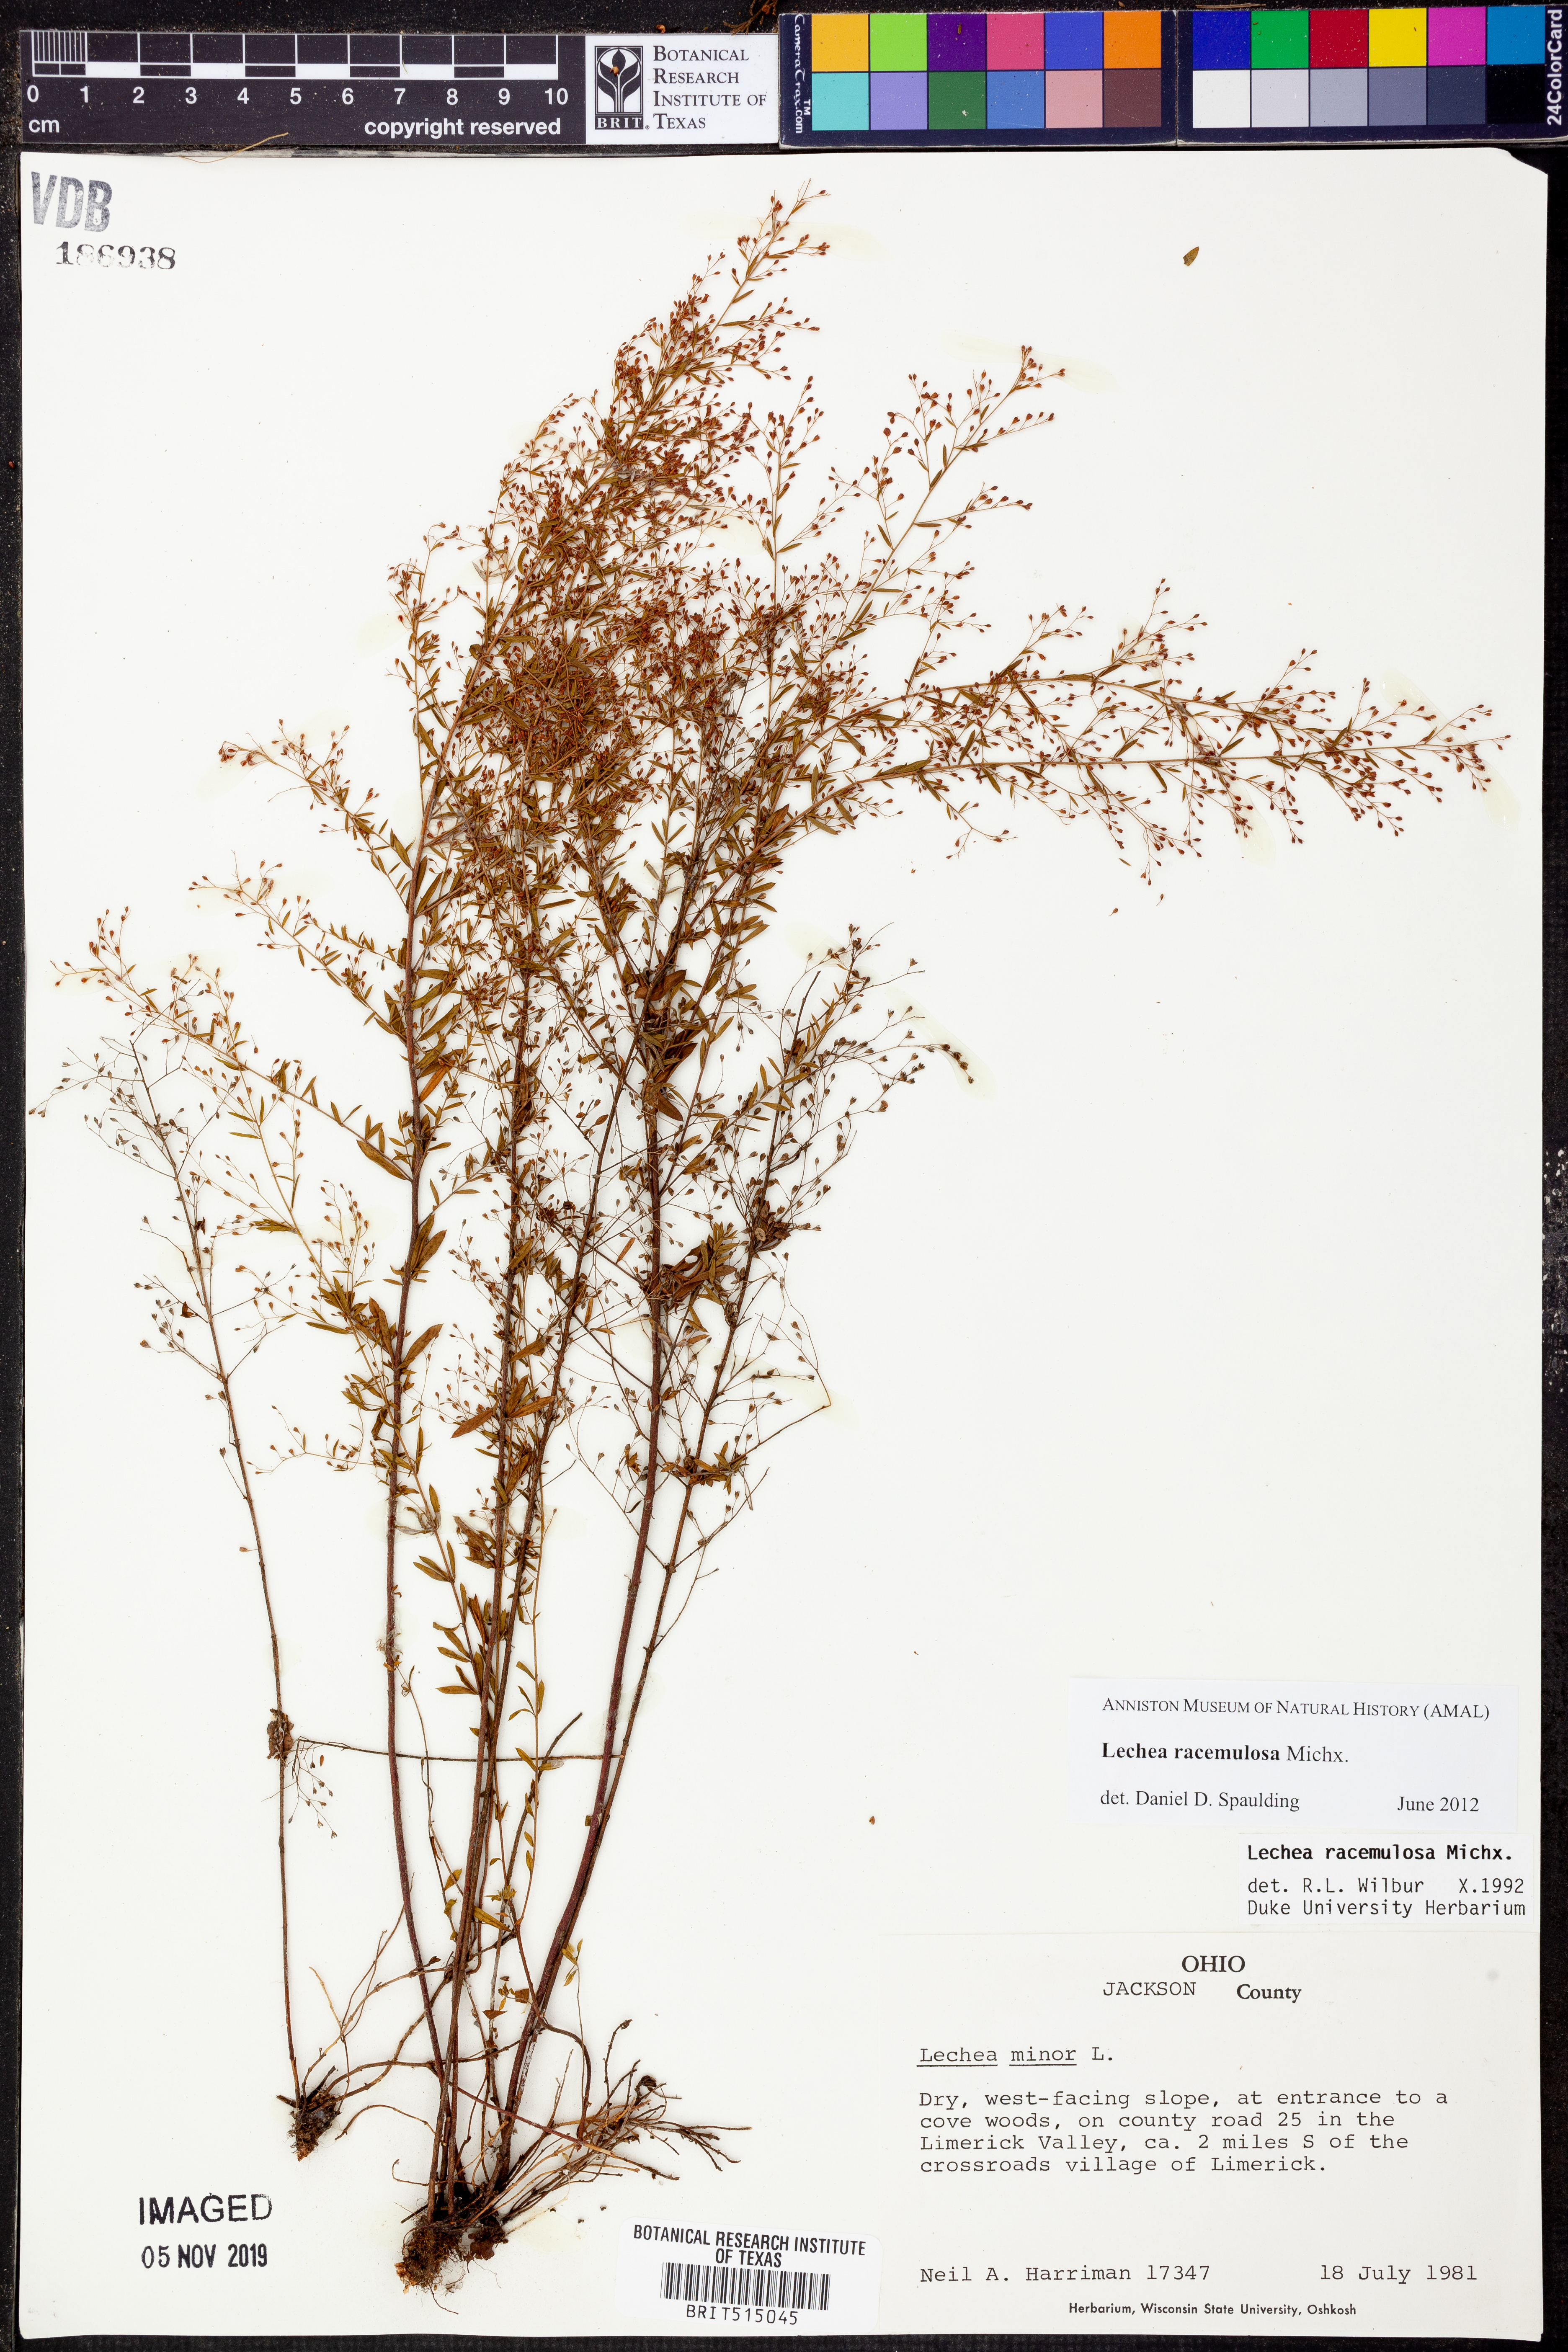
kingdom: Plantae
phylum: Tracheophyta
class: Magnoliopsida
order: Malvales
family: Cistaceae
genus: Lechea
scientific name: Lechea racemulosa
